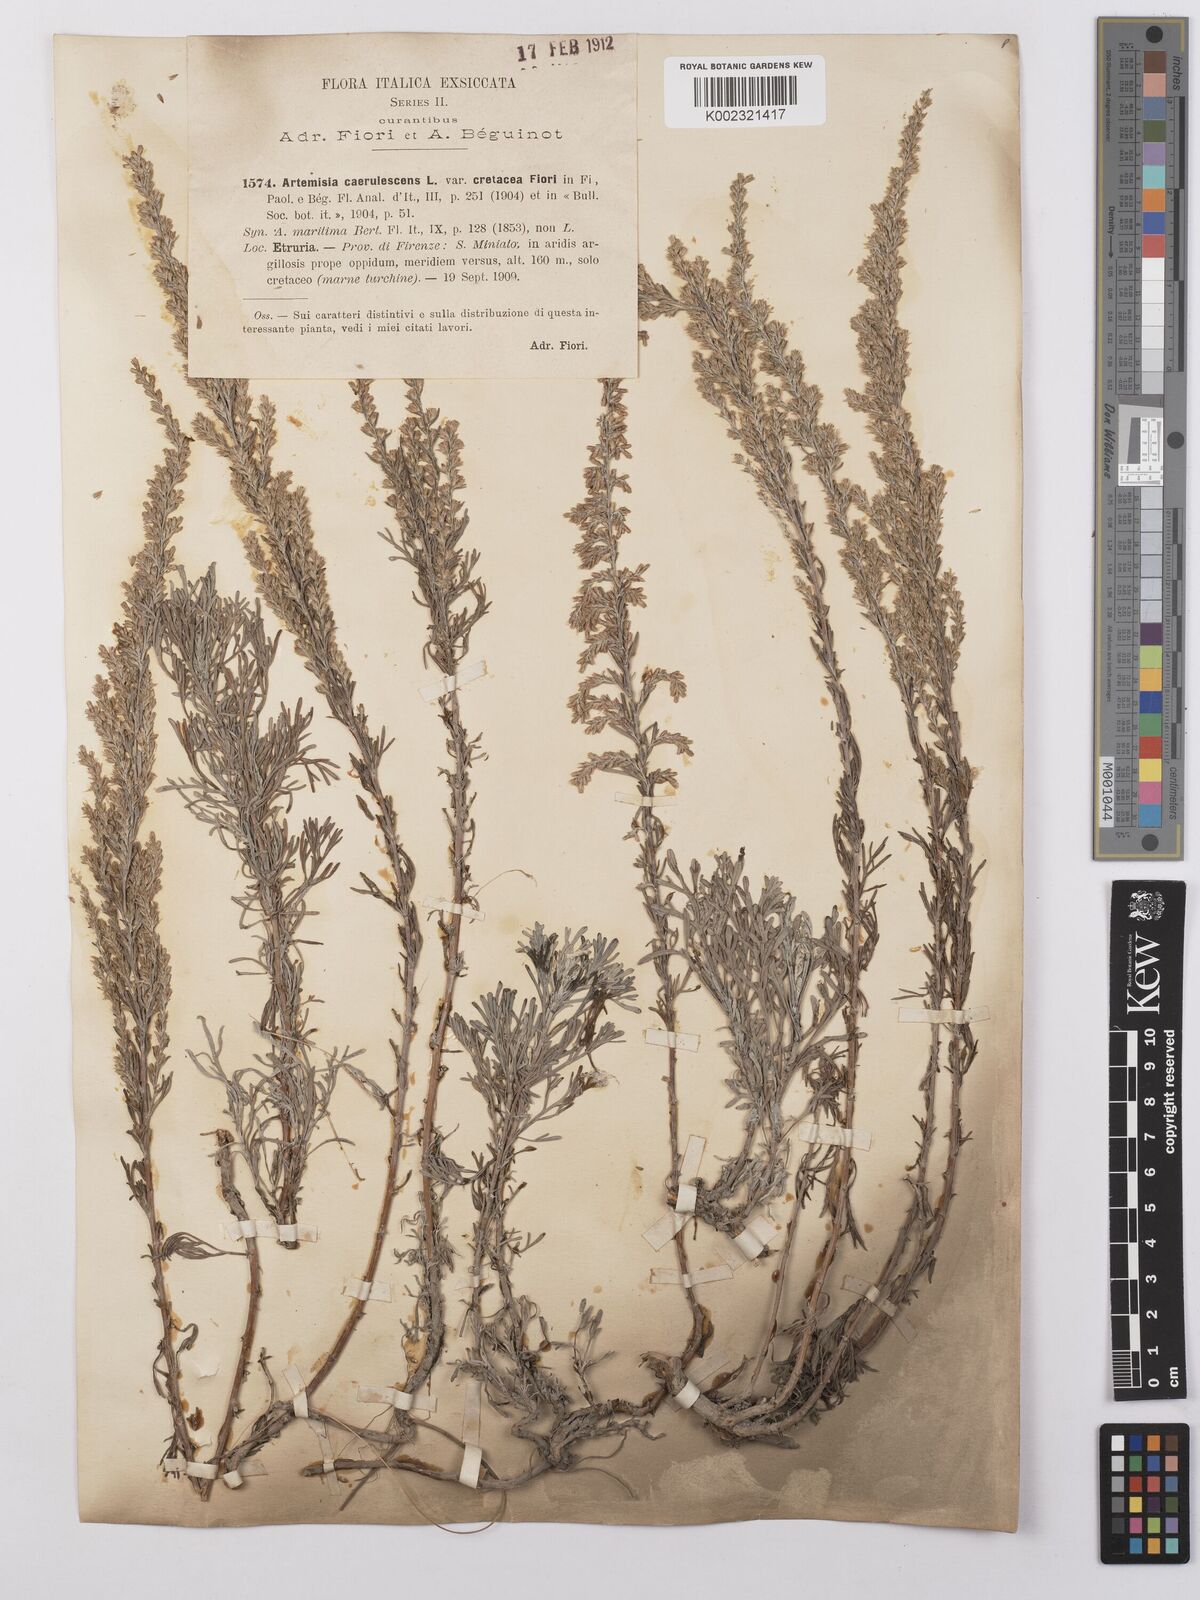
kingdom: Plantae
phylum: Tracheophyta
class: Magnoliopsida
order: Asterales
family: Asteraceae
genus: Artemisia
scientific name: Artemisia caerulescens
